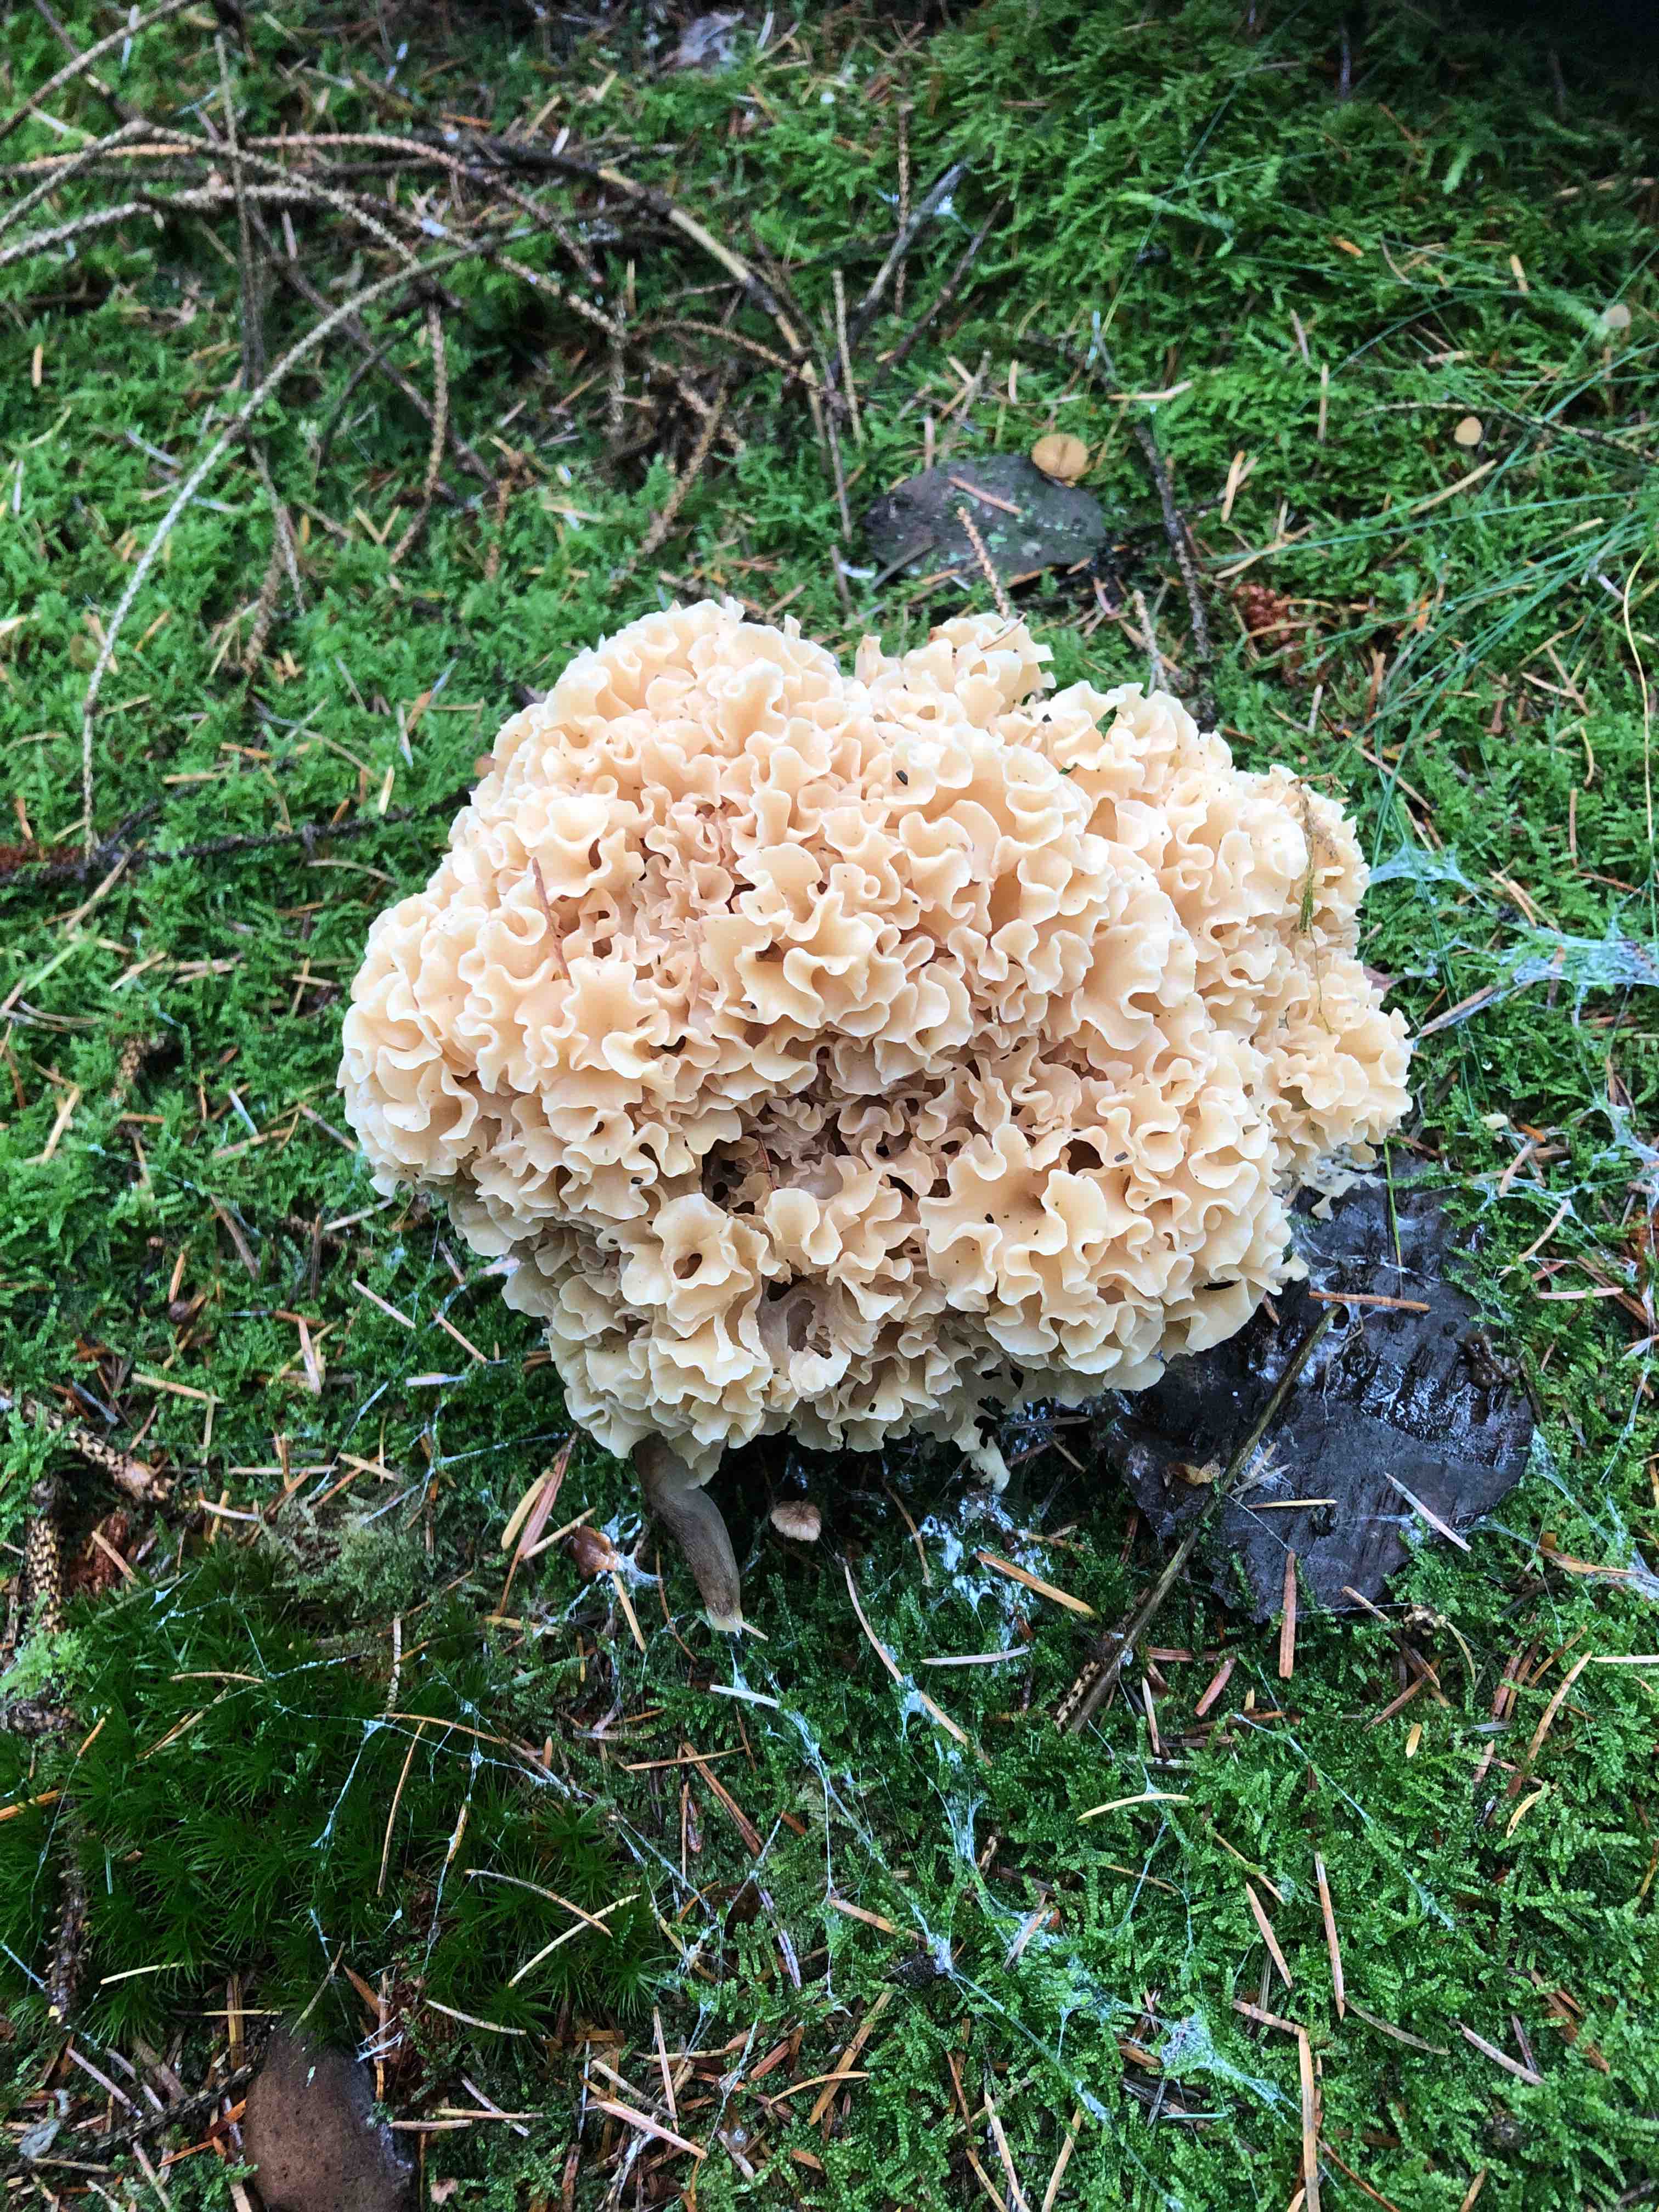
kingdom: Fungi
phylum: Basidiomycota
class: Agaricomycetes
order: Polyporales
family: Sparassidaceae
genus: Sparassis
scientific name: Sparassis crispa
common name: kruset blomkålssvamp
